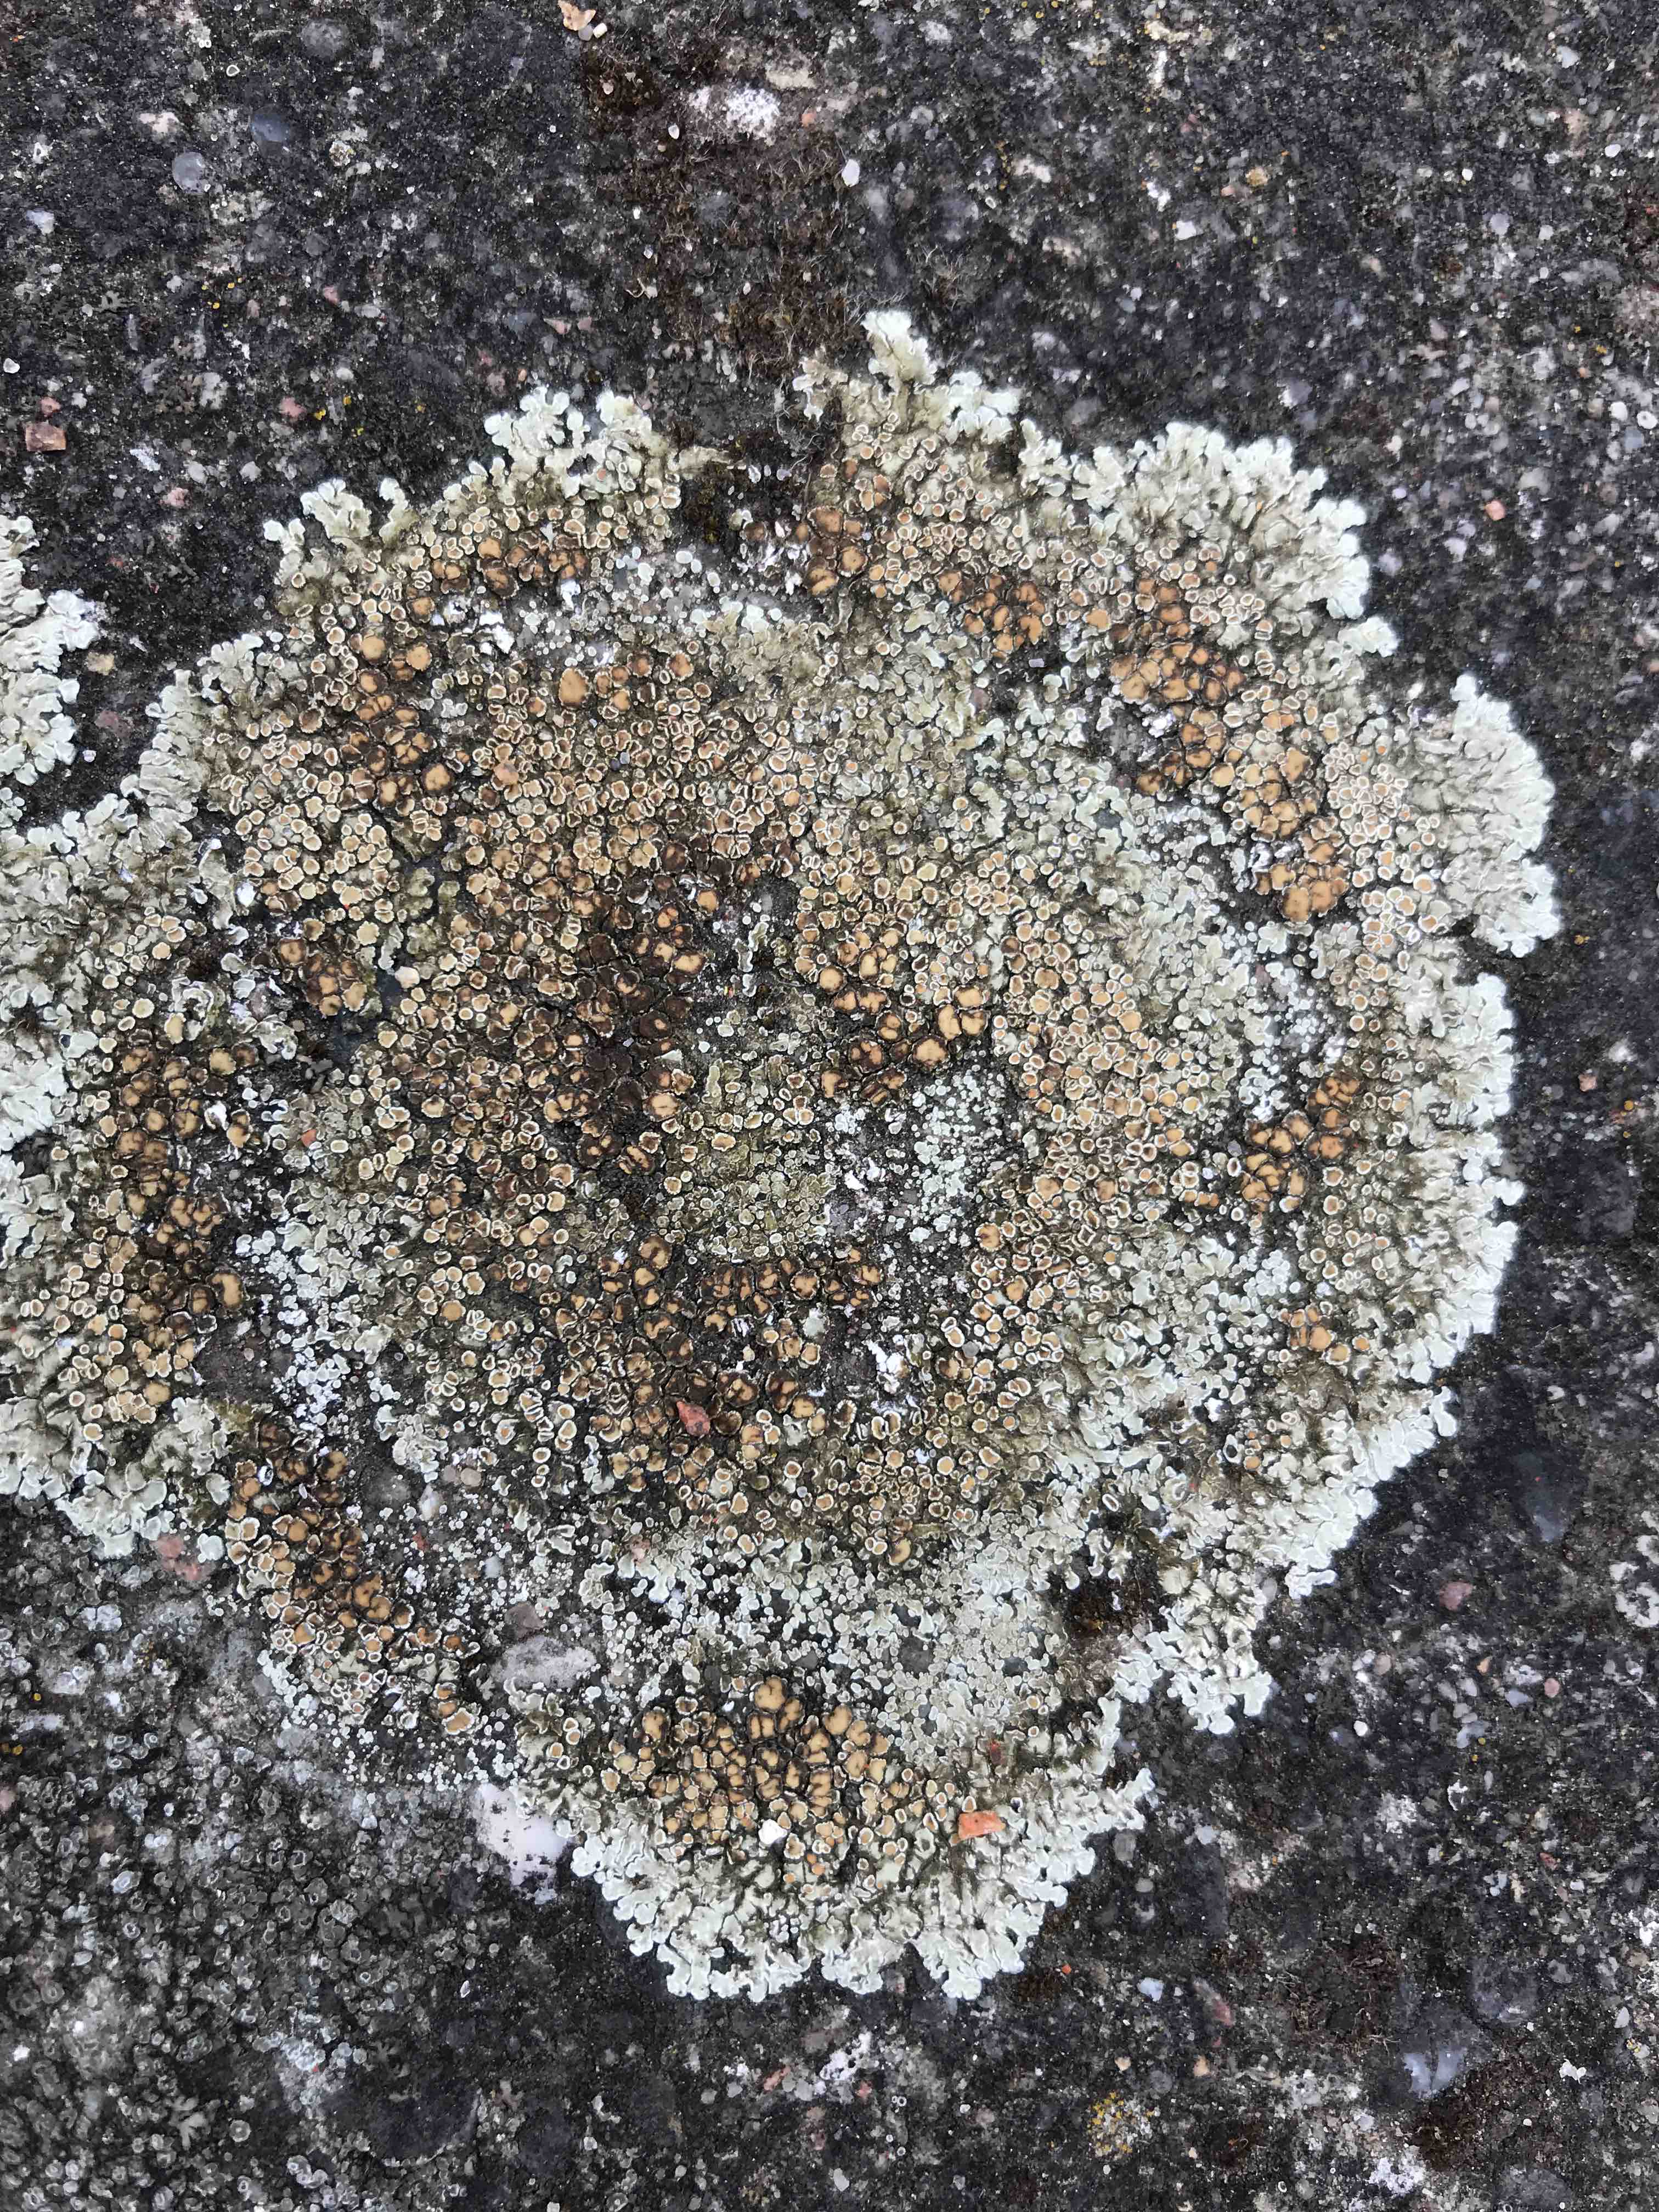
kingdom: Fungi
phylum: Ascomycota
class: Lecanoromycetes
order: Lecanorales
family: Lecanoraceae
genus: Protoparmeliopsis
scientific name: Protoparmeliopsis muralis
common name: randfliget kantskivelav
